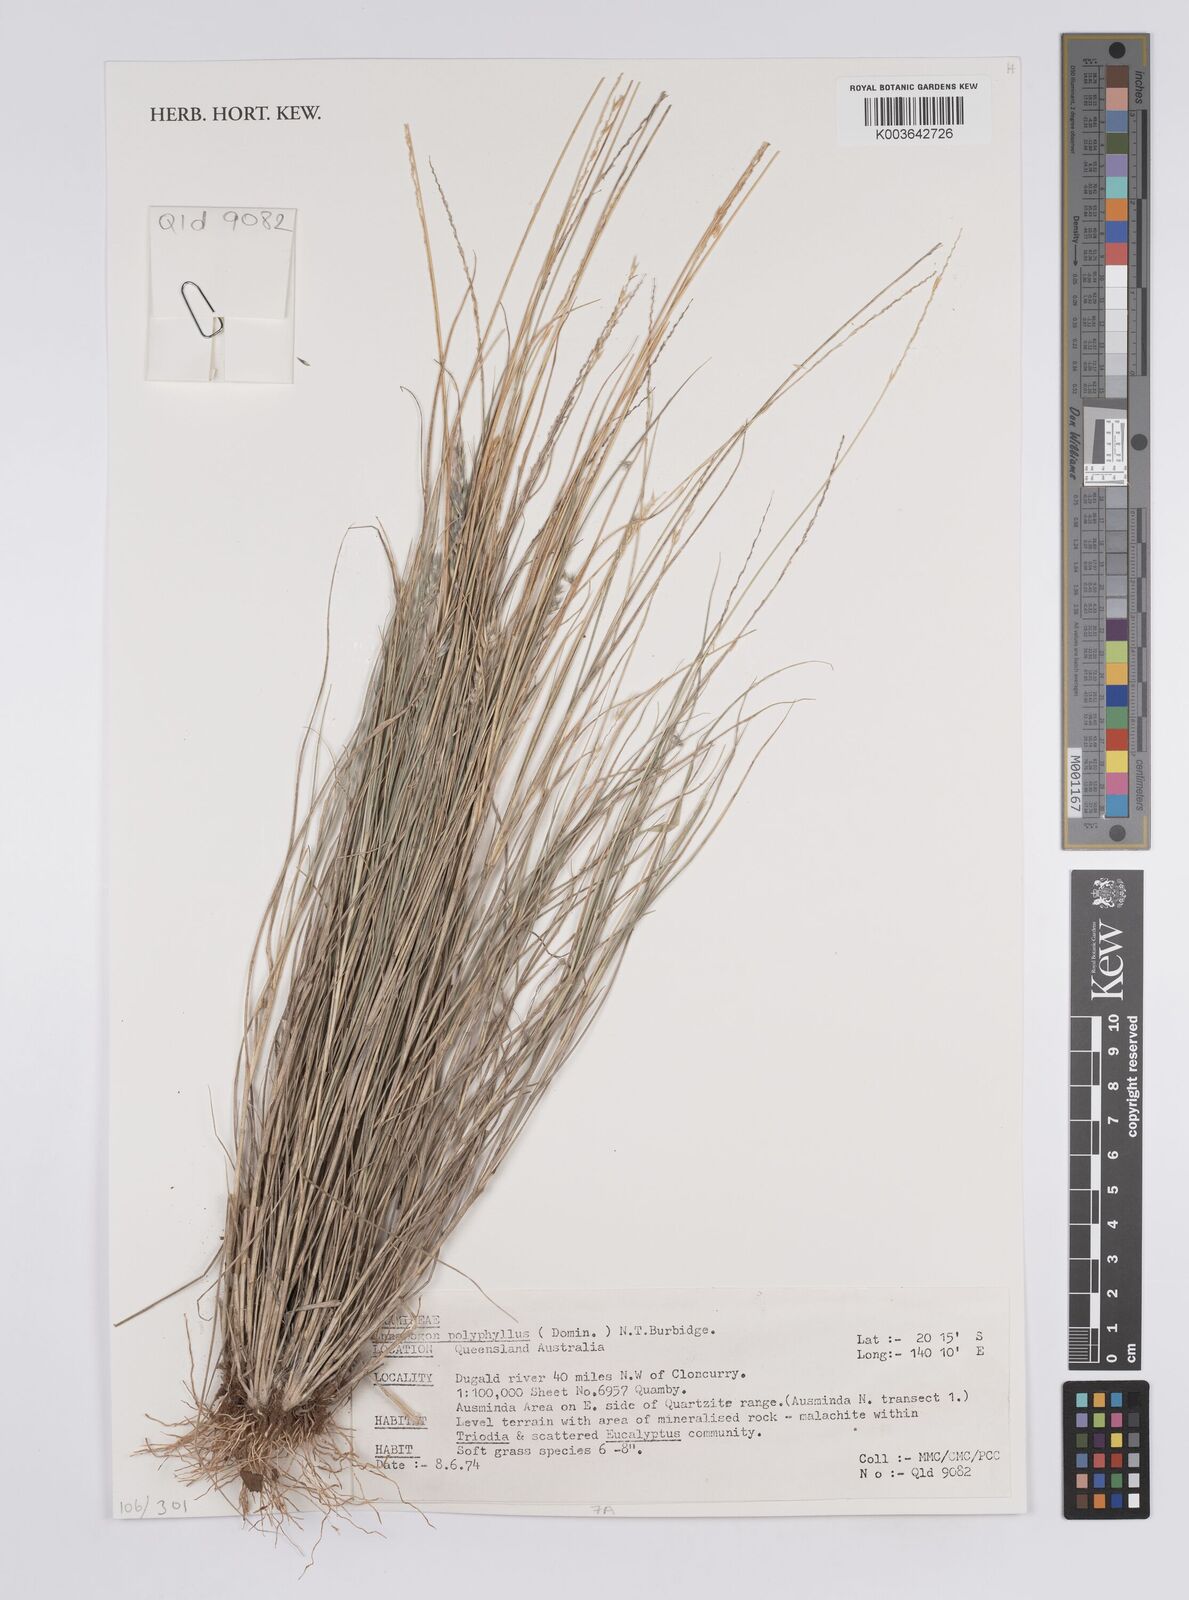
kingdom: Plantae
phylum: Tracheophyta
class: Liliopsida
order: Poales
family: Poaceae
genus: Enneapogon
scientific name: Enneapogon polyphyllus
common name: Leafy nineawn
